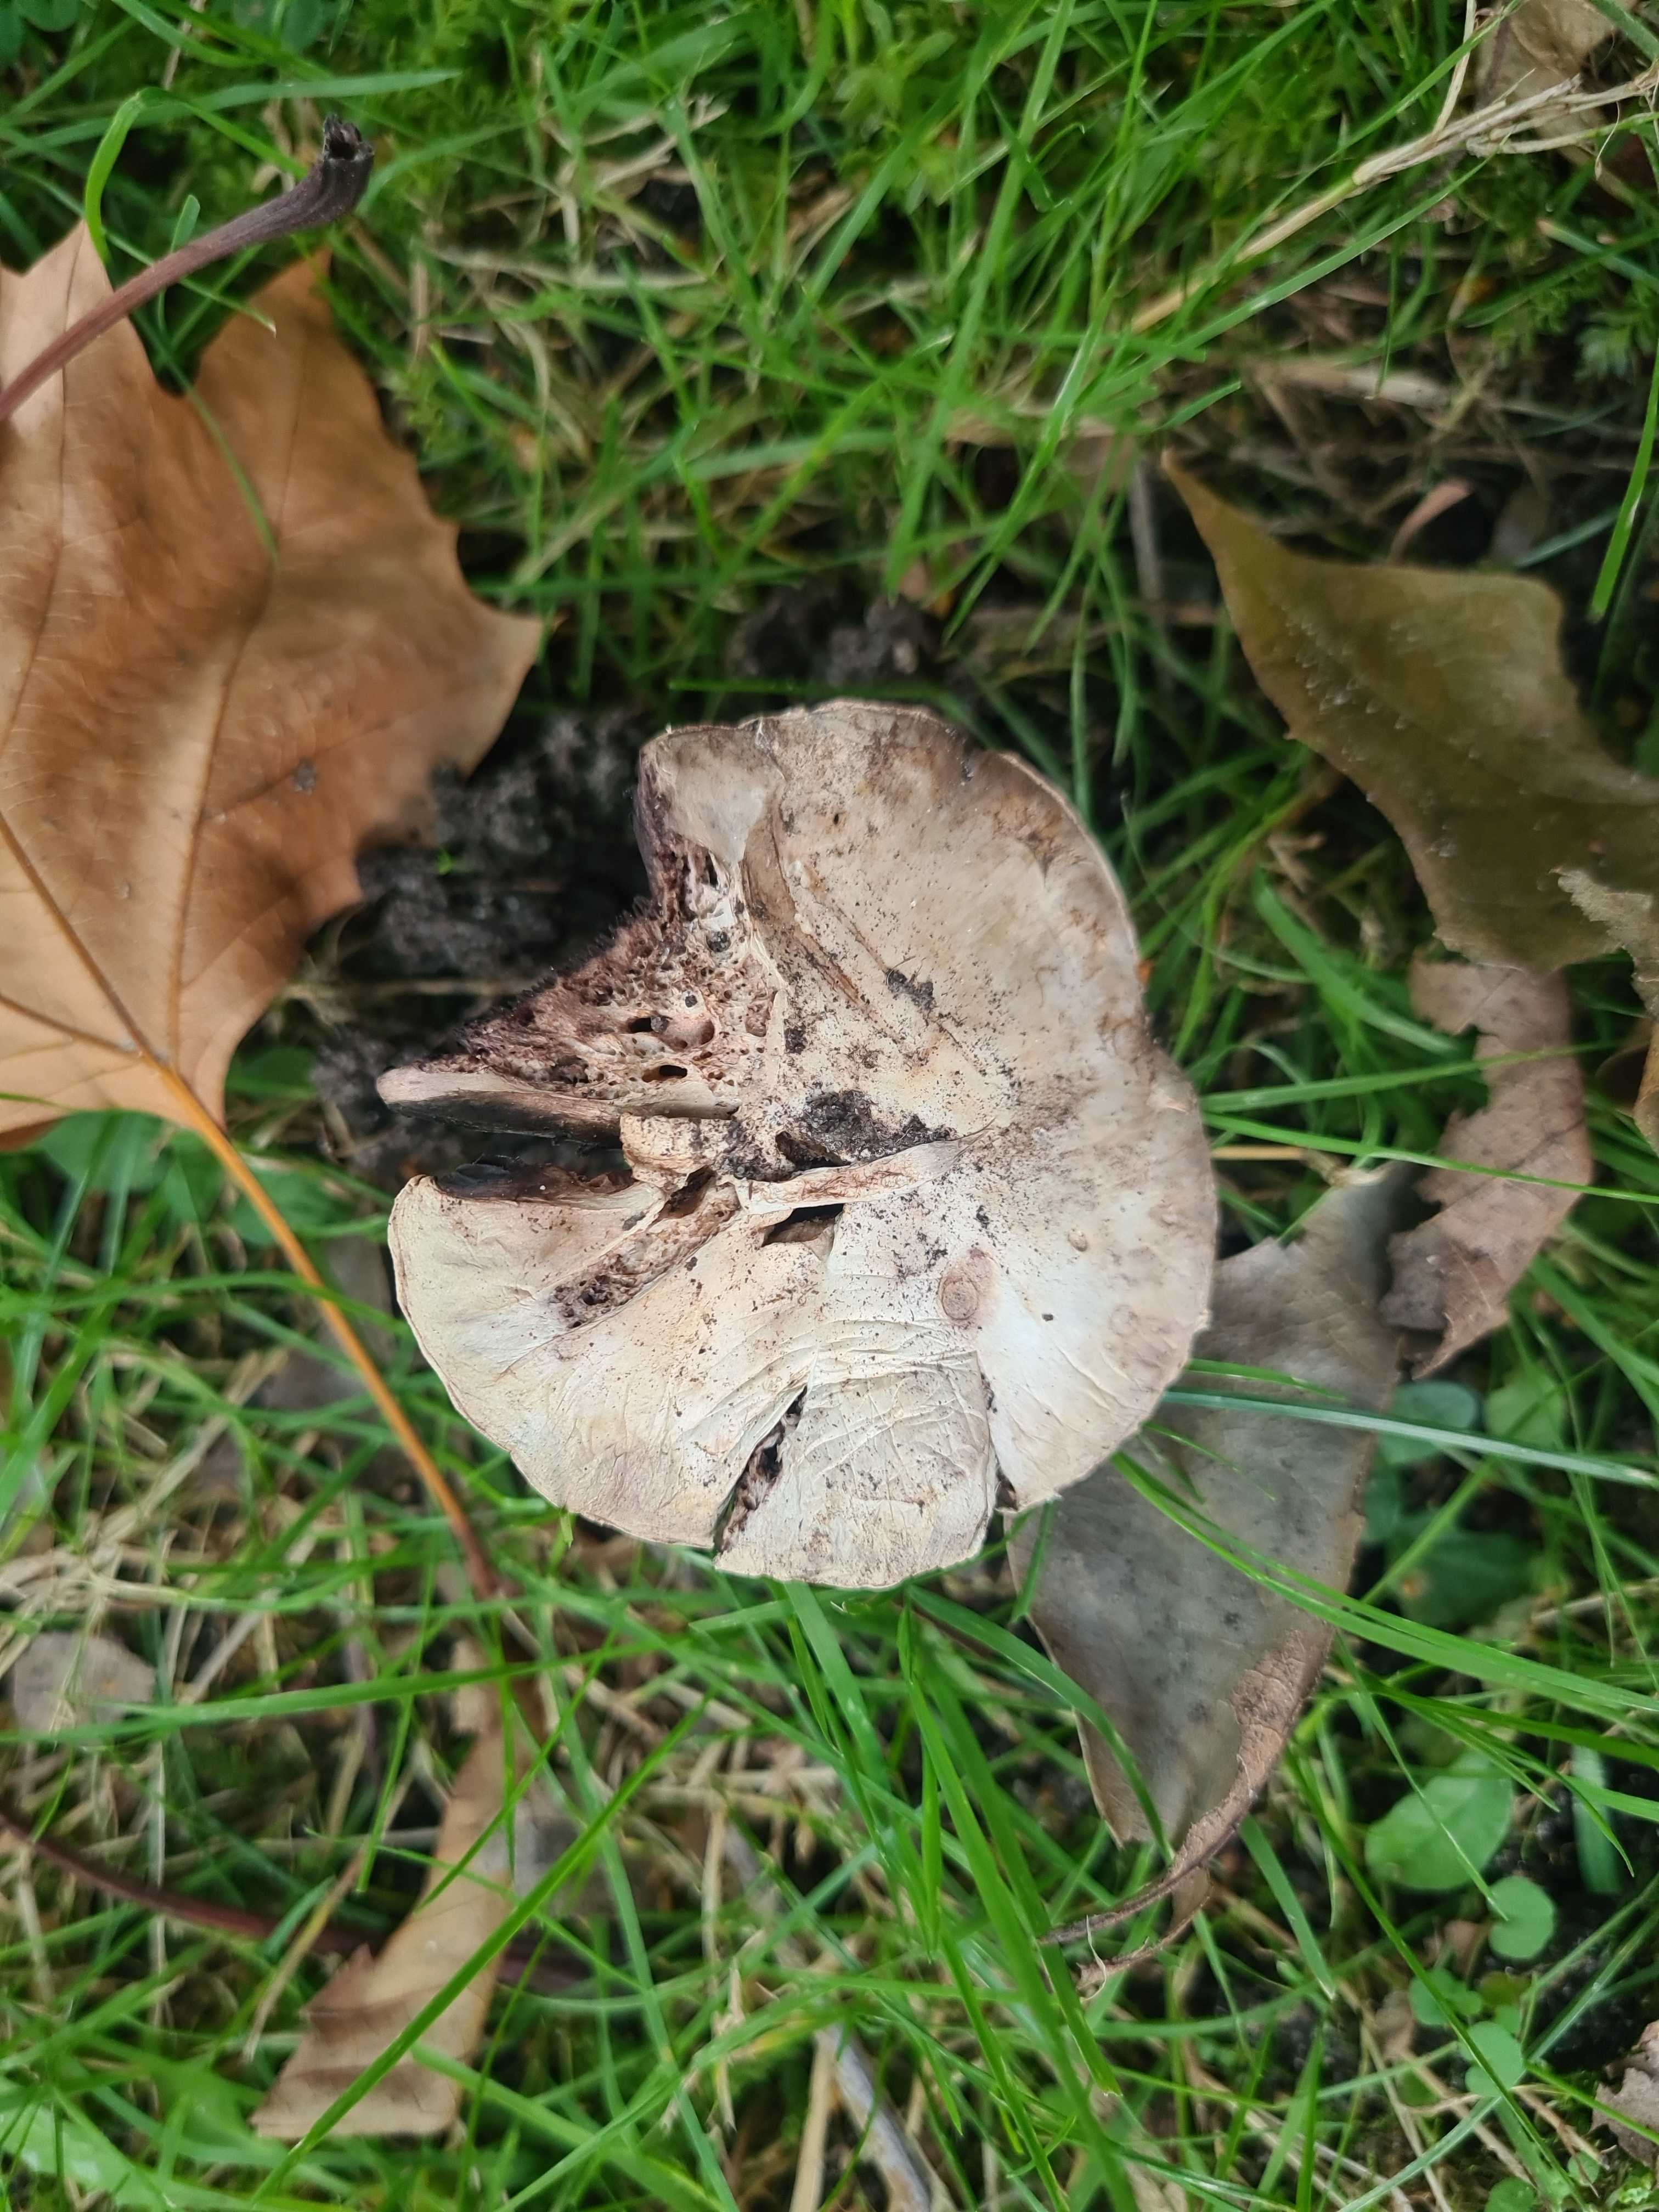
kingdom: Fungi
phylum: Basidiomycota
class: Agaricomycetes
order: Agaricales
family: Agaricaceae
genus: Agaricus
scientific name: Agaricus
